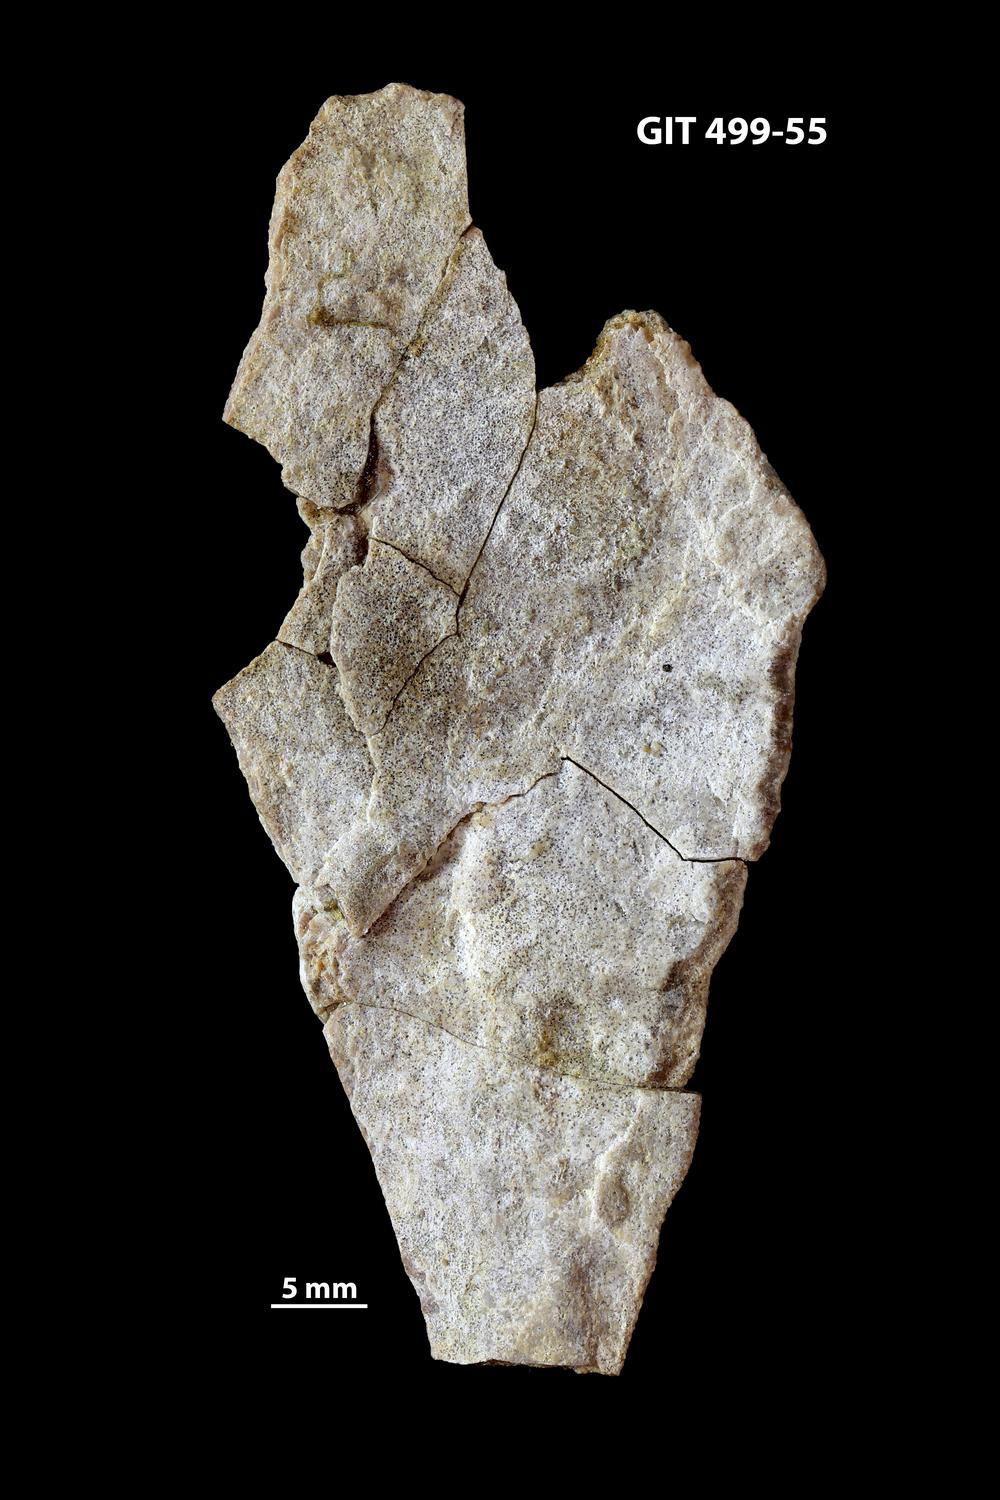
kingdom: Animalia
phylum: Chordata
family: Holoptychiidae
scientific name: Holoptychiidae
